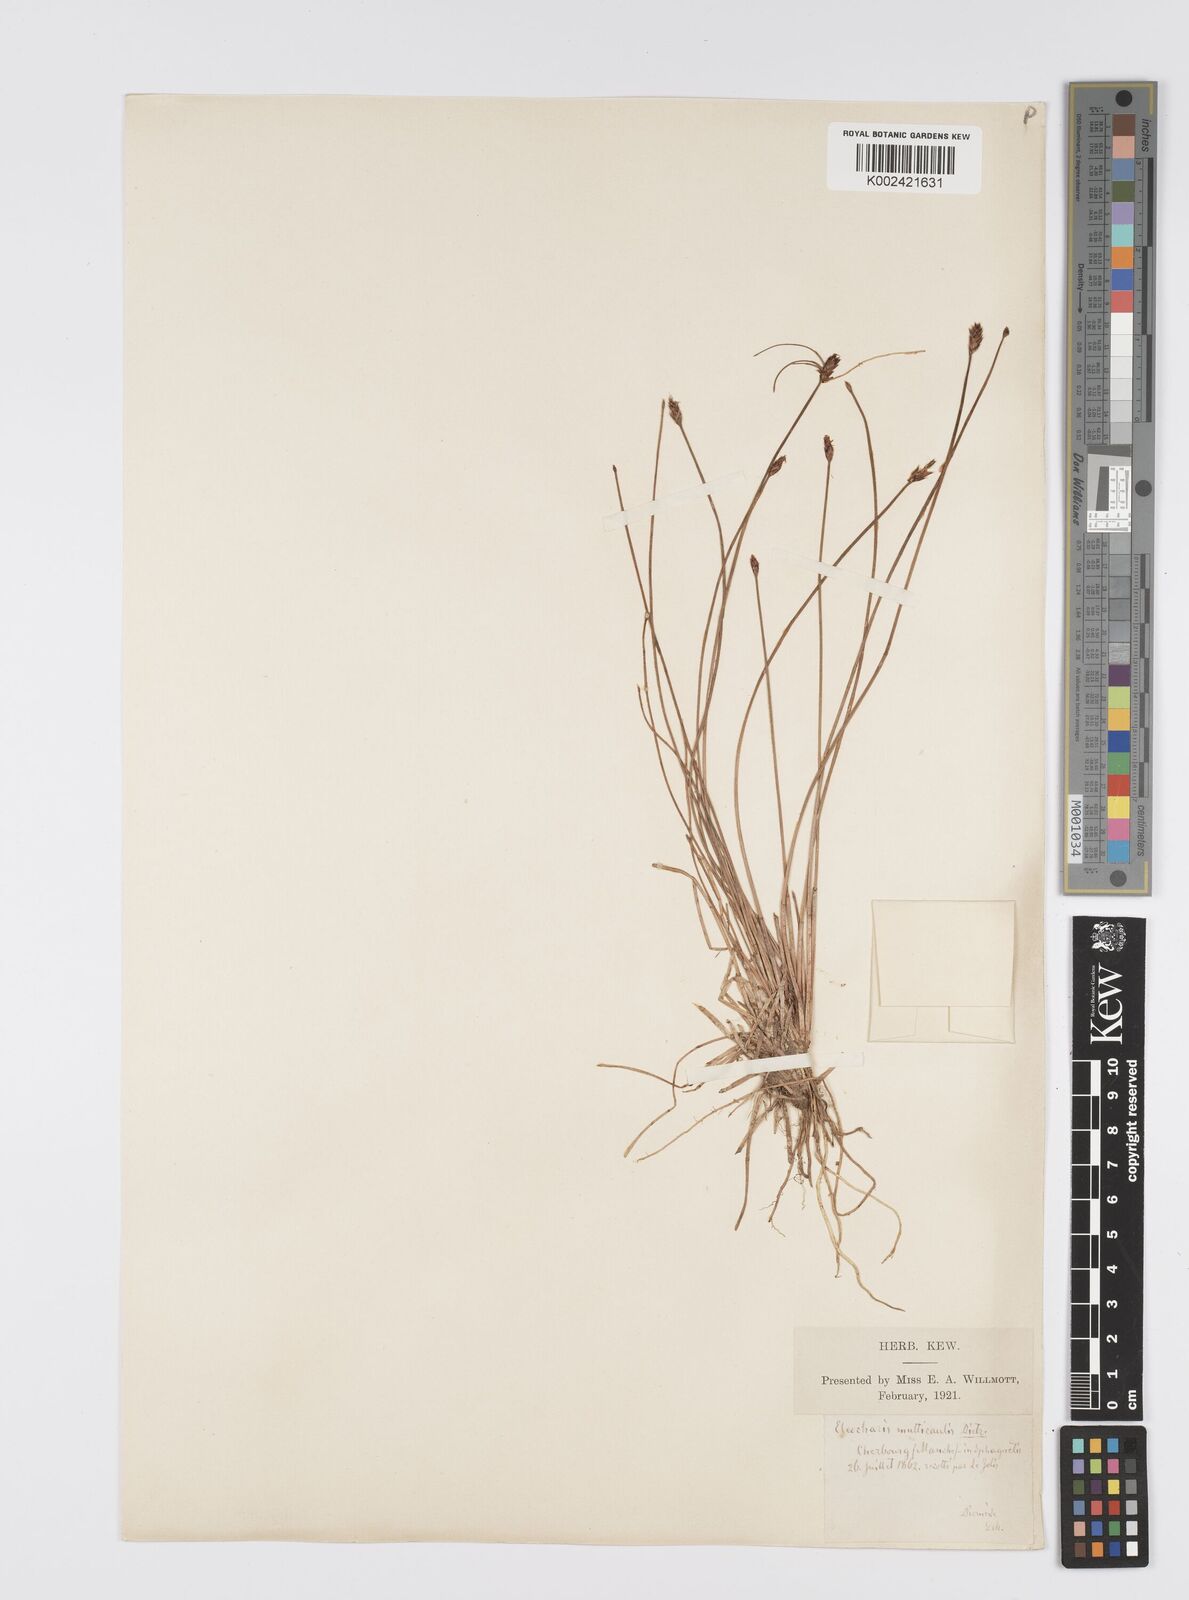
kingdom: Plantae
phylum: Tracheophyta
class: Liliopsida
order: Poales
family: Cyperaceae
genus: Eleocharis
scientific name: Eleocharis multicaulis
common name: Many-stalked spike-rush
